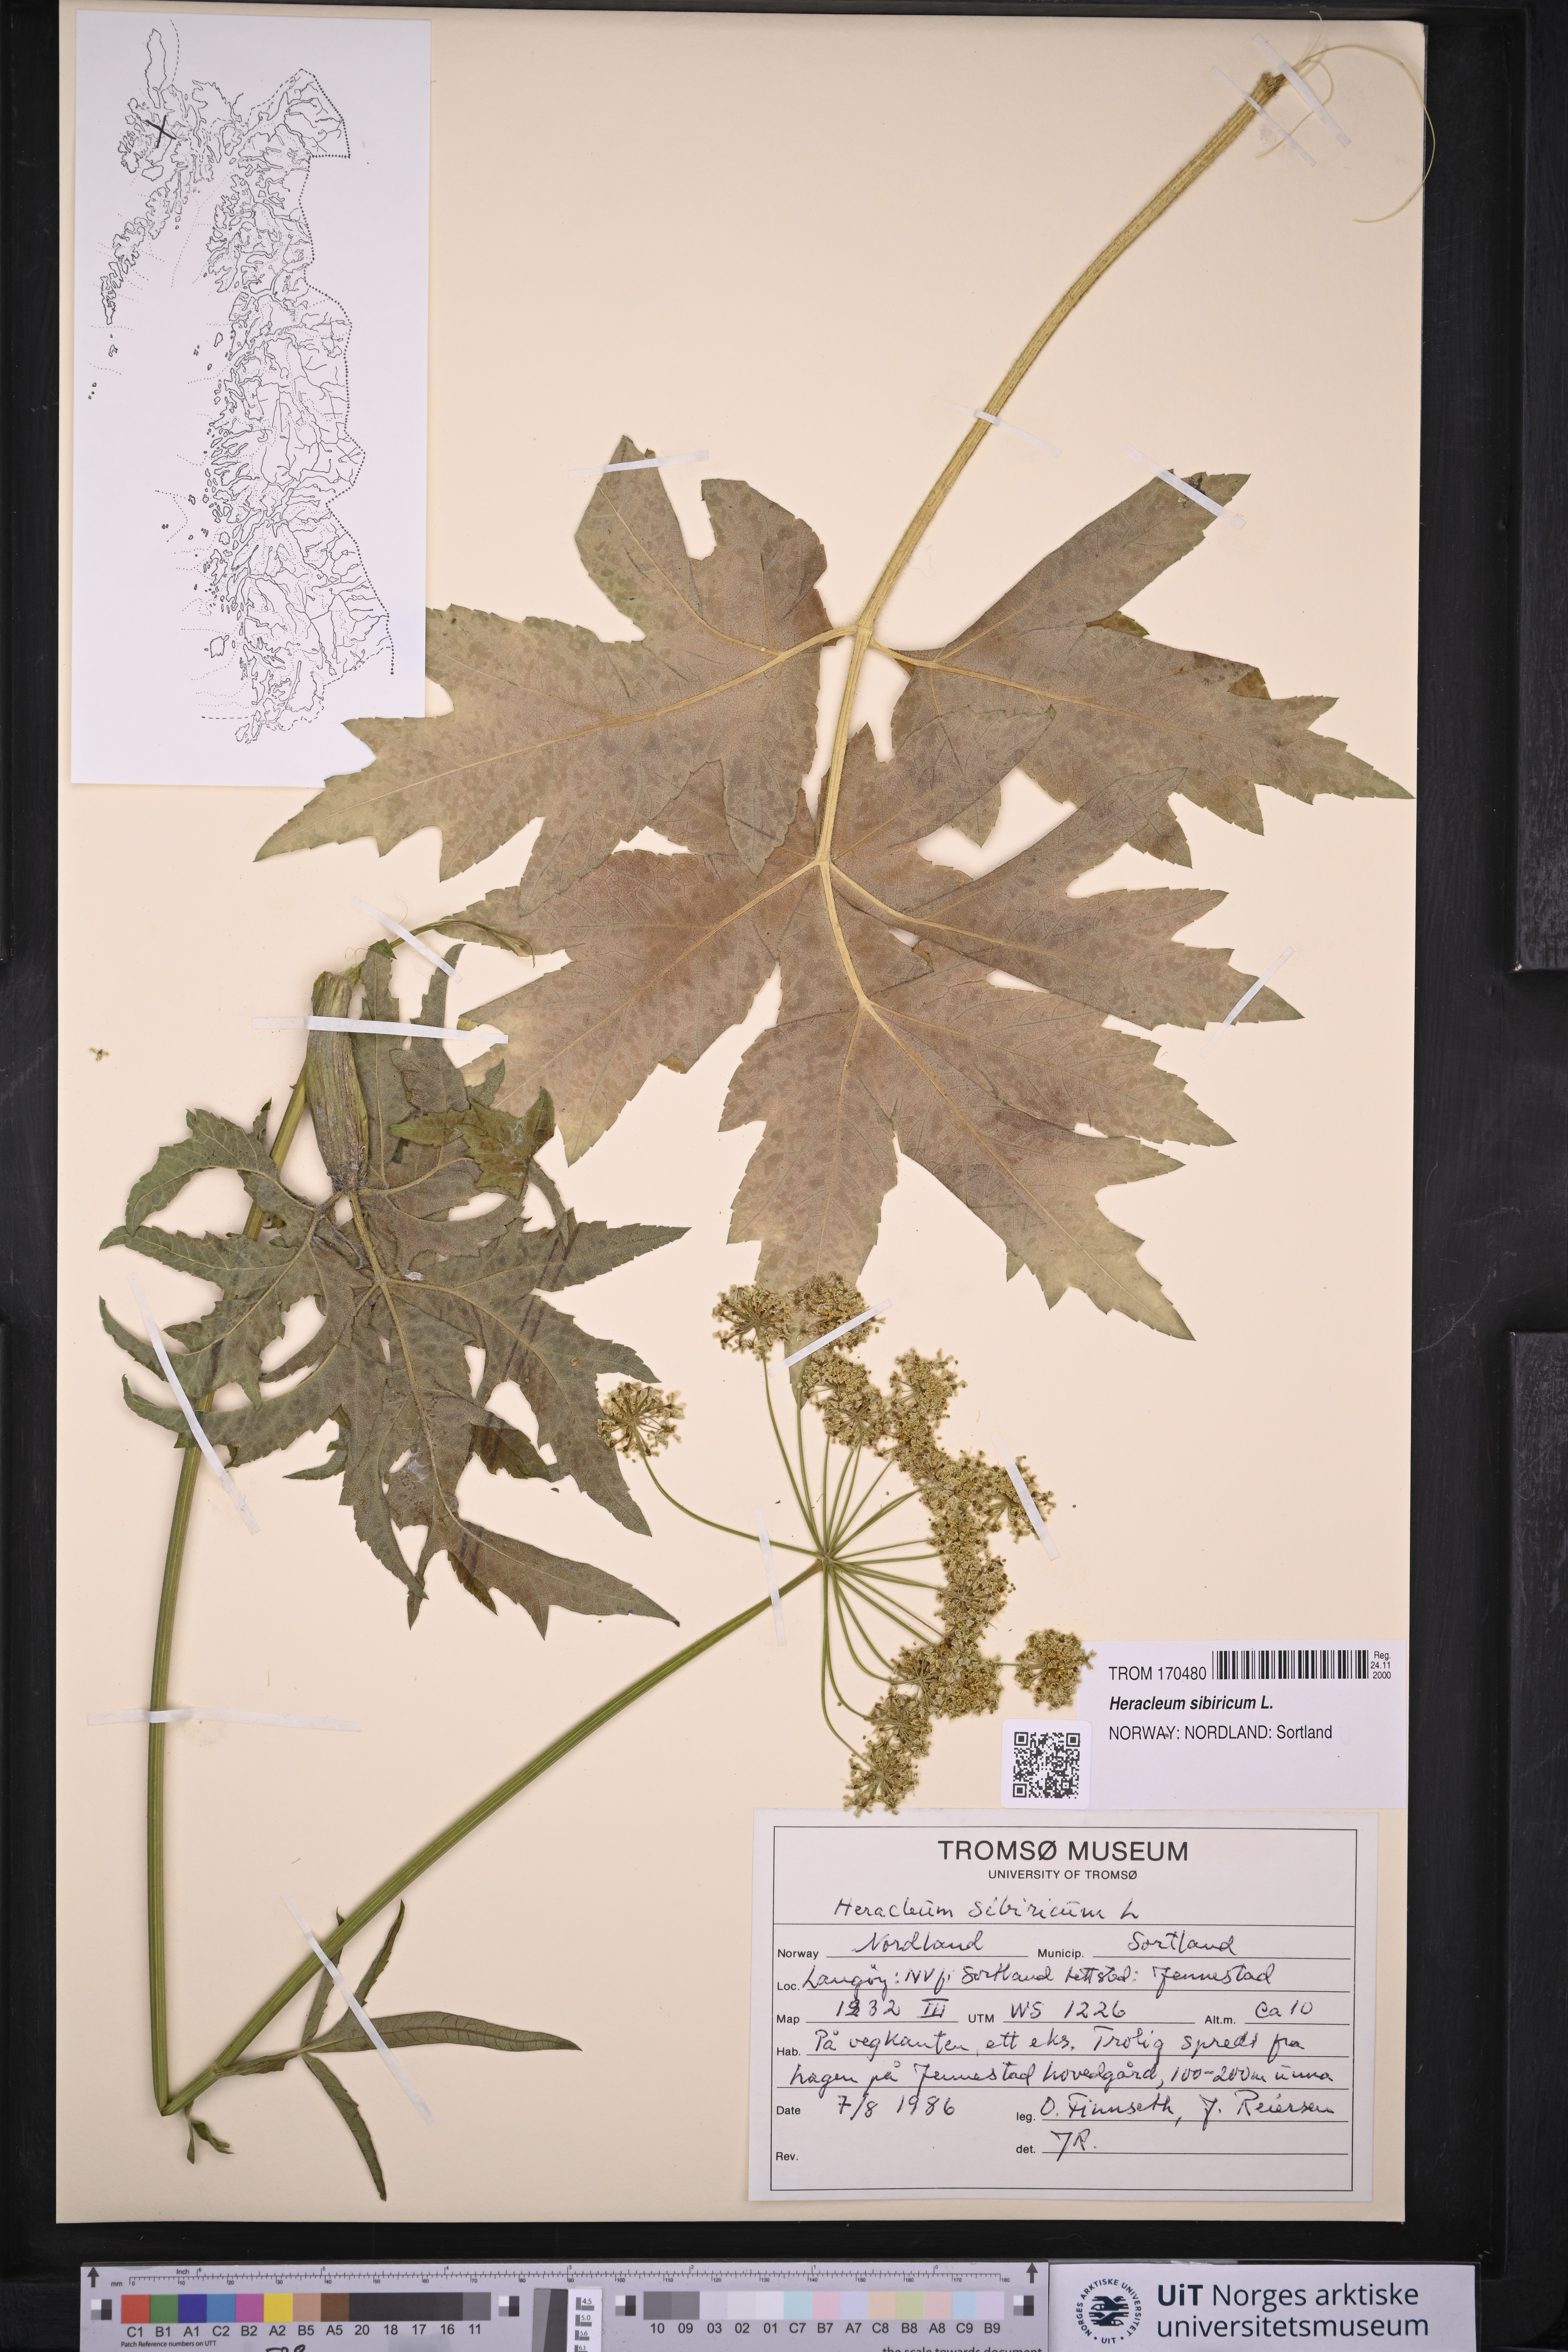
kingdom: Plantae
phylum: Tracheophyta
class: Magnoliopsida
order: Apiales
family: Apiaceae
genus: Heracleum
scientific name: Heracleum sphondylium
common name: Hogweed
